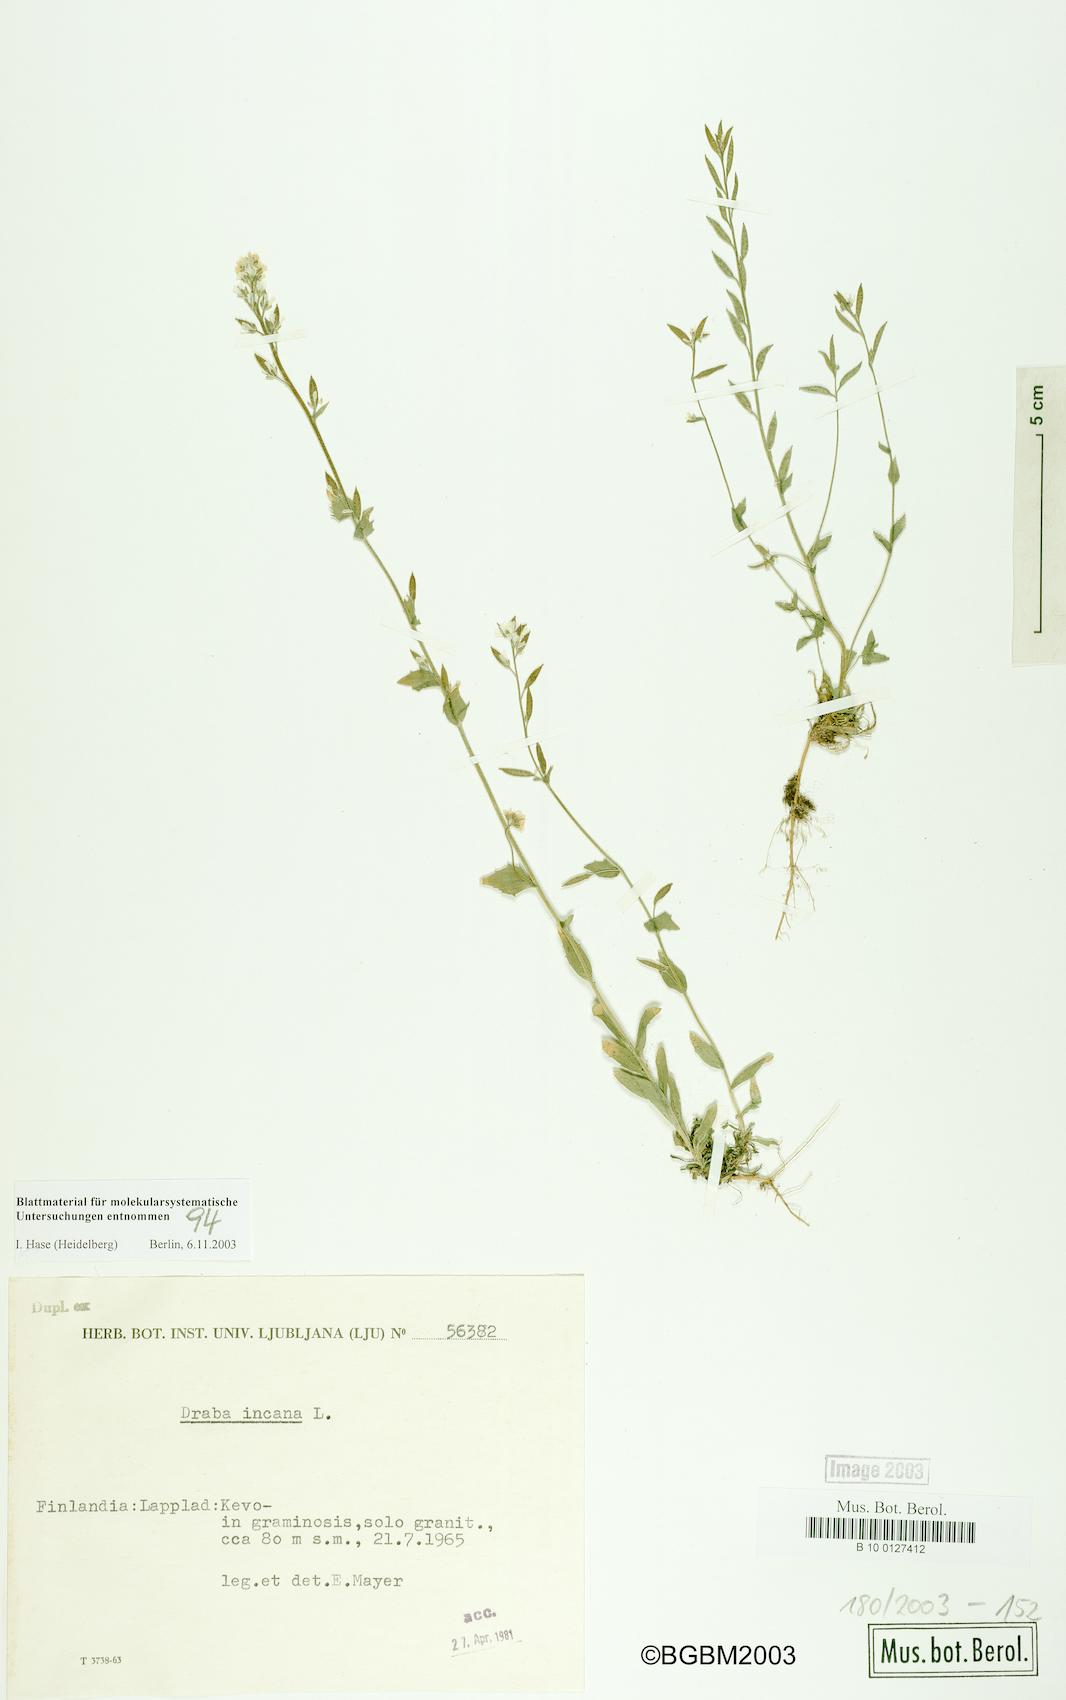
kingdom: Plantae
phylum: Tracheophyta
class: Magnoliopsida
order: Brassicales
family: Brassicaceae
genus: Draba
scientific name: Draba incana
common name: Hoary whitlow-grass
